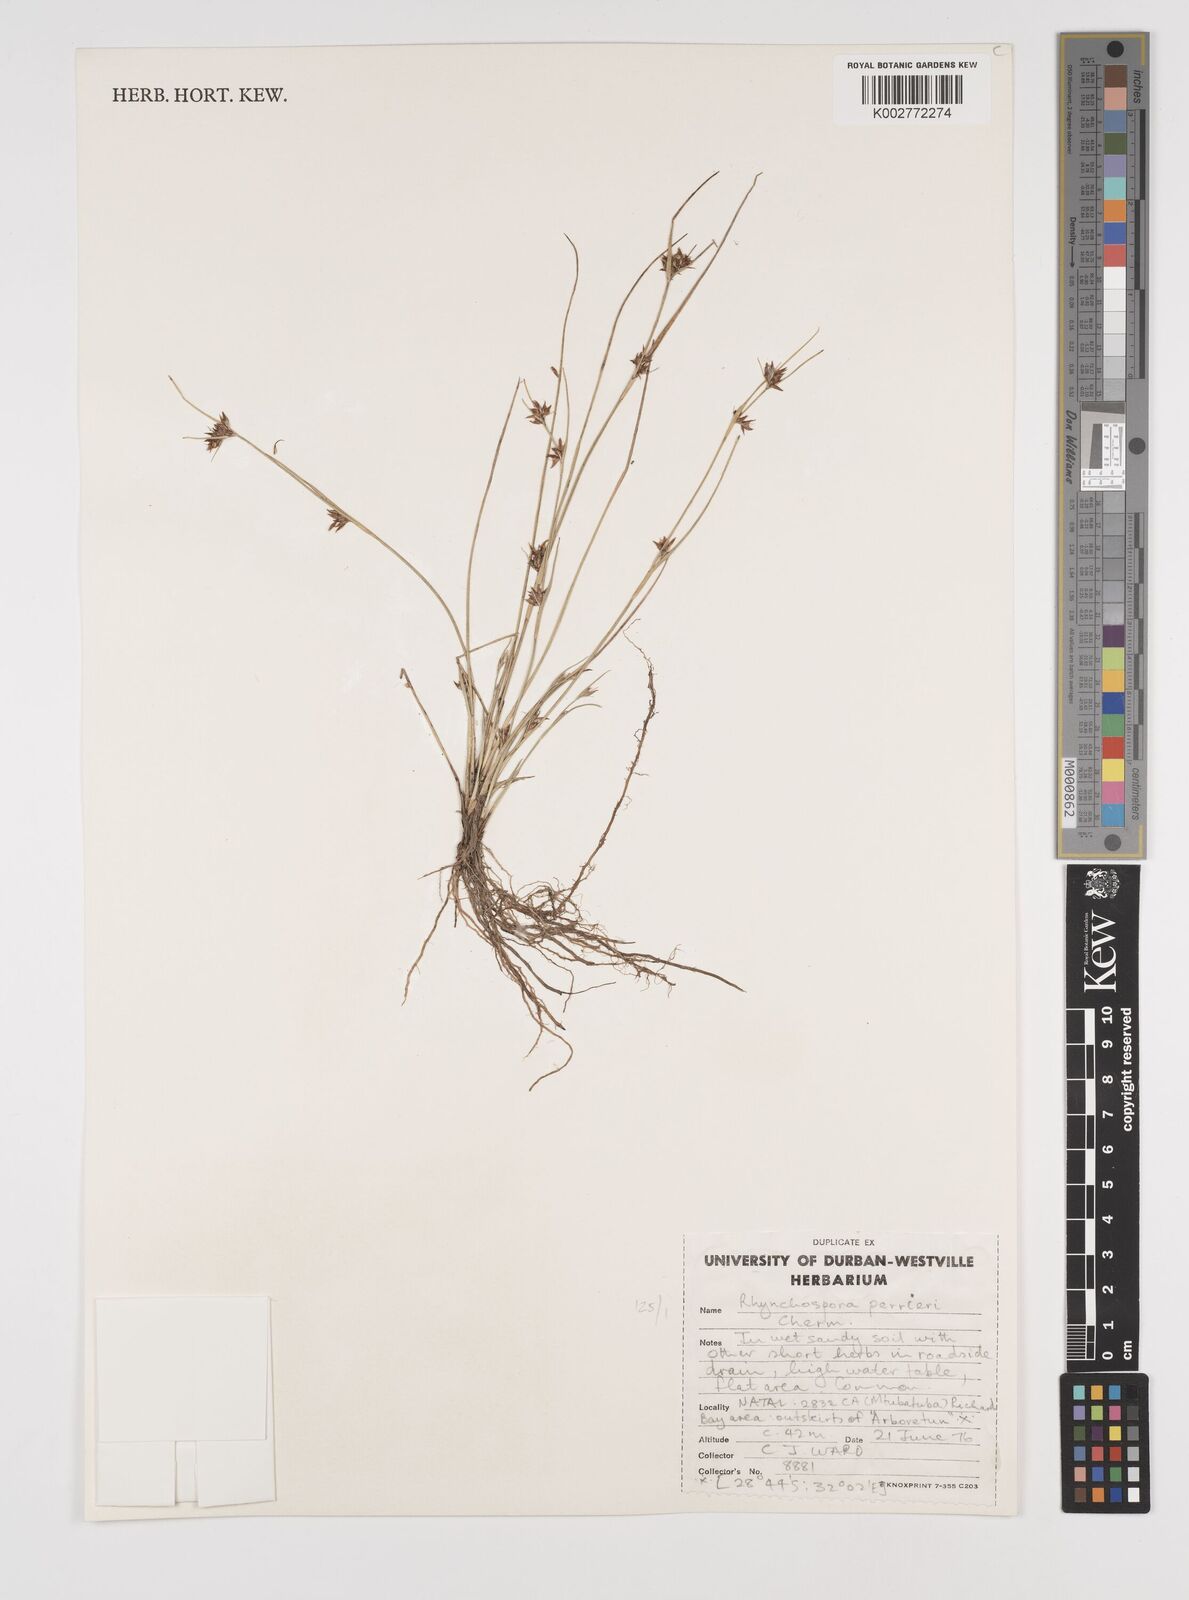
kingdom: Plantae
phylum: Tracheophyta
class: Liliopsida
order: Poales
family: Cyperaceae
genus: Rhynchospora
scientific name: Rhynchospora perrieri
